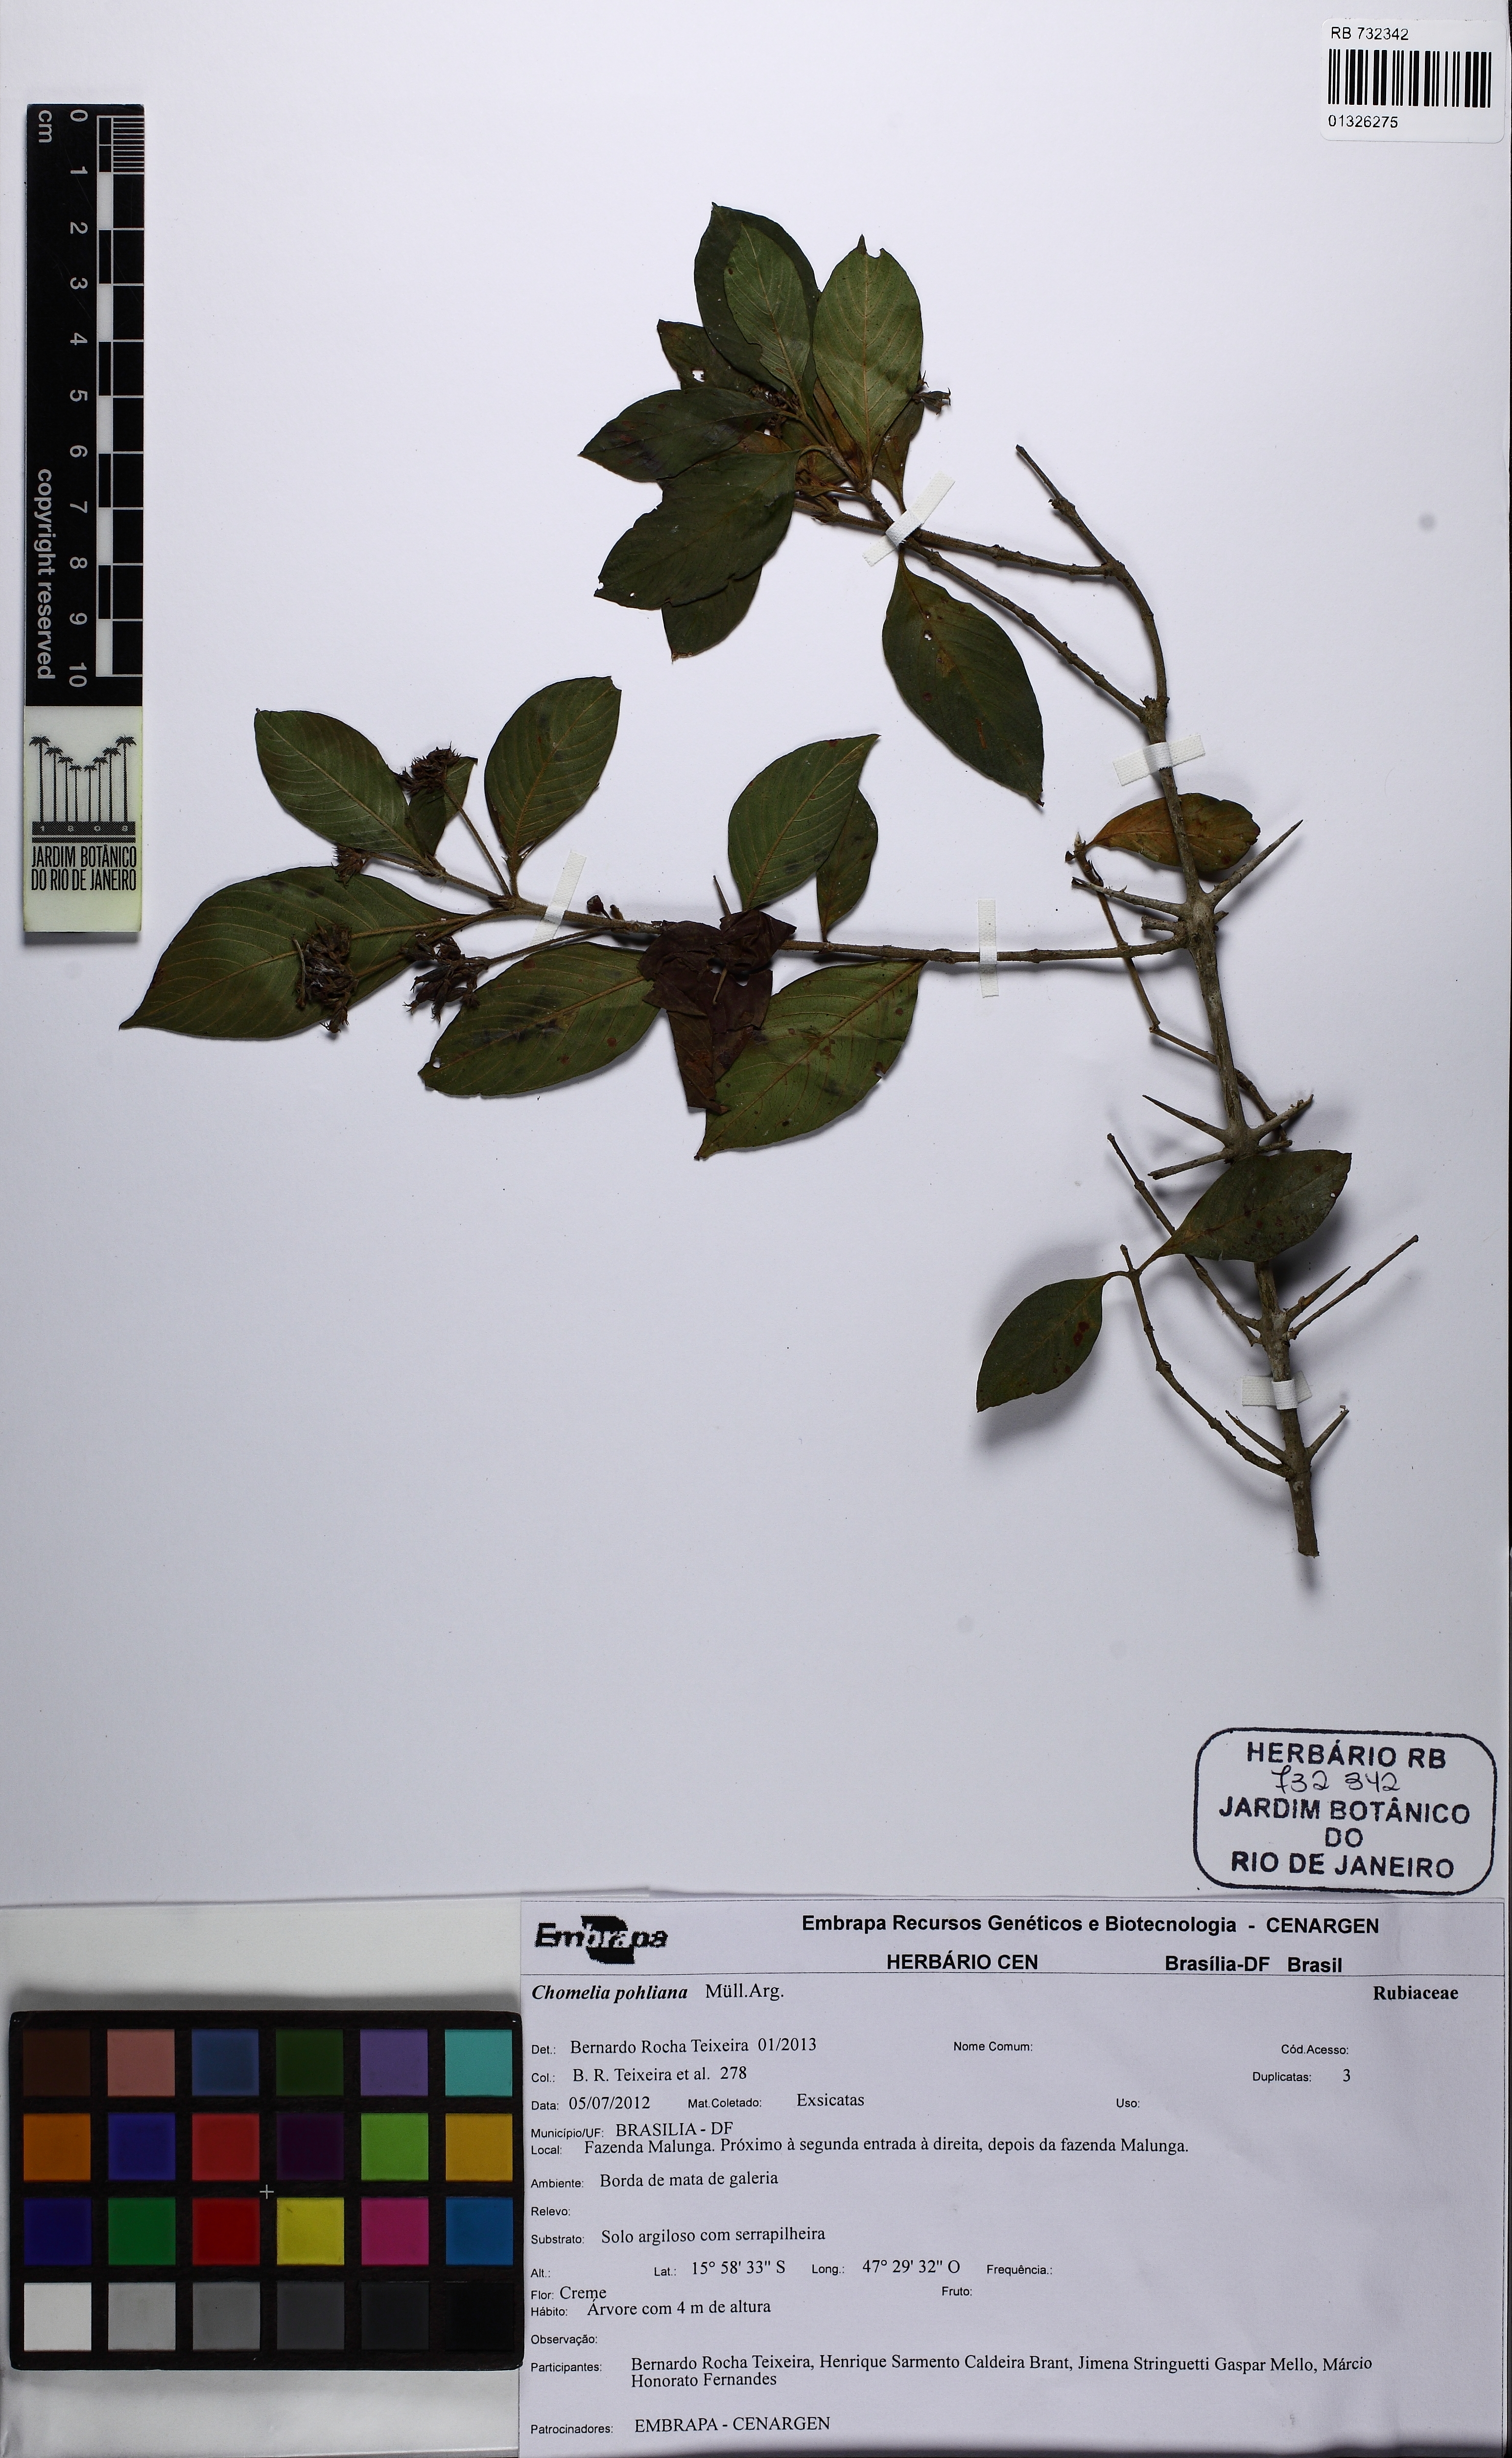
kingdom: Plantae
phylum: Tracheophyta
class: Magnoliopsida
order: Gentianales
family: Rubiaceae
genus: Chomelia
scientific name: Chomelia pohliana
